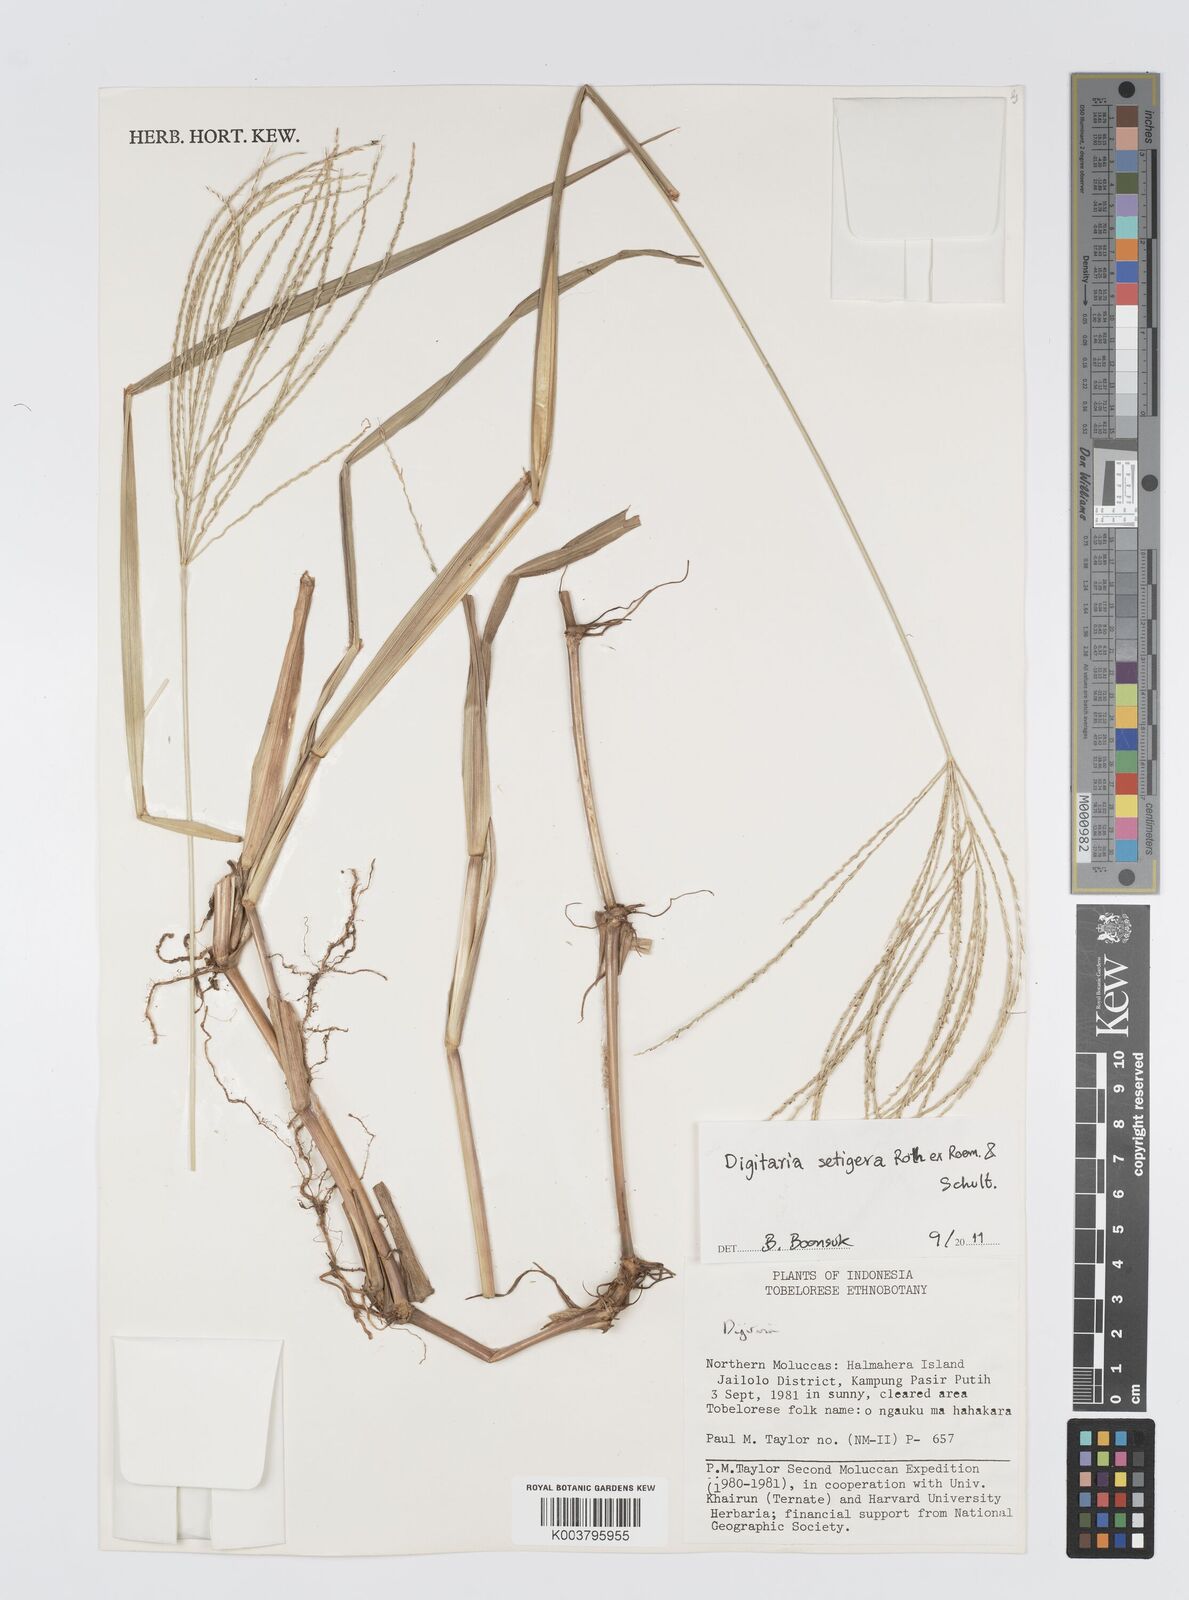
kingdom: Plantae
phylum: Tracheophyta
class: Liliopsida
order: Poales
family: Poaceae
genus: Digitaria
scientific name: Digitaria setigera
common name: East indian crabgrass
